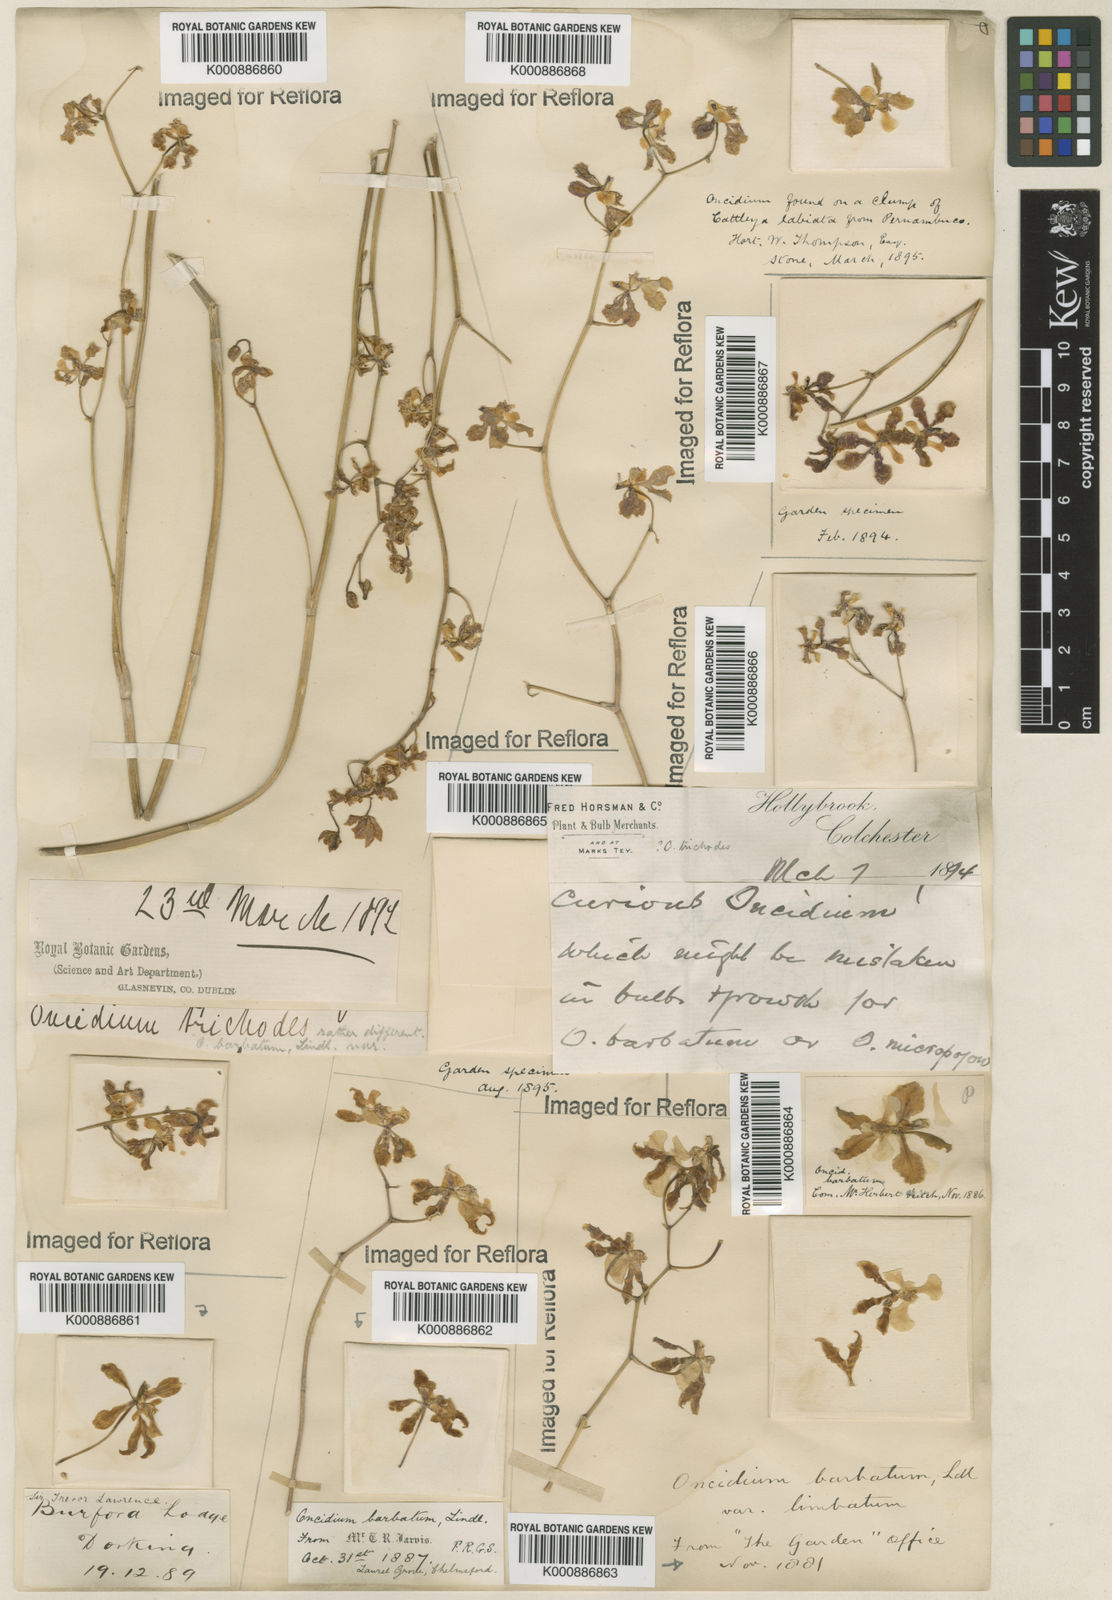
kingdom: Plantae
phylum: Tracheophyta
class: Liliopsida
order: Asparagales
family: Orchidaceae
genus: Gomesa
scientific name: Gomesa barbata
